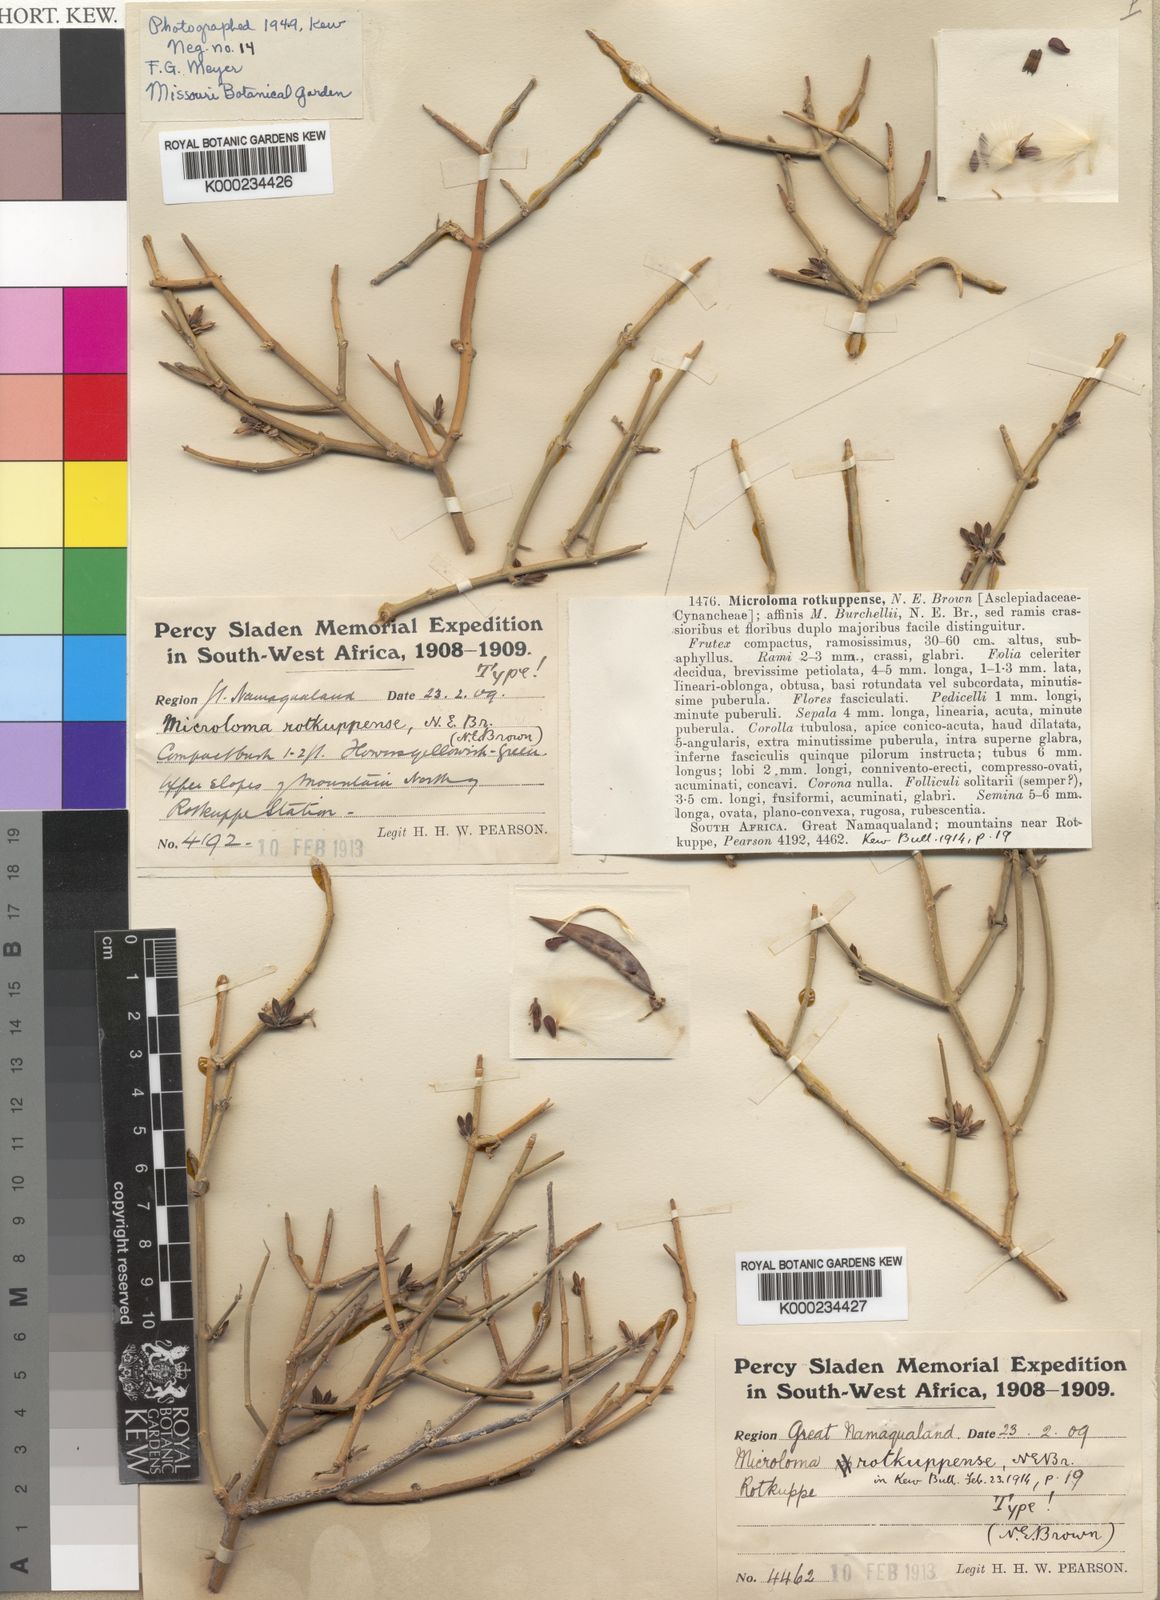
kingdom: Plantae
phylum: Tracheophyta
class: Magnoliopsida
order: Gentianales
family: Apocynaceae
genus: Microloma
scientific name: Microloma penicillatum
